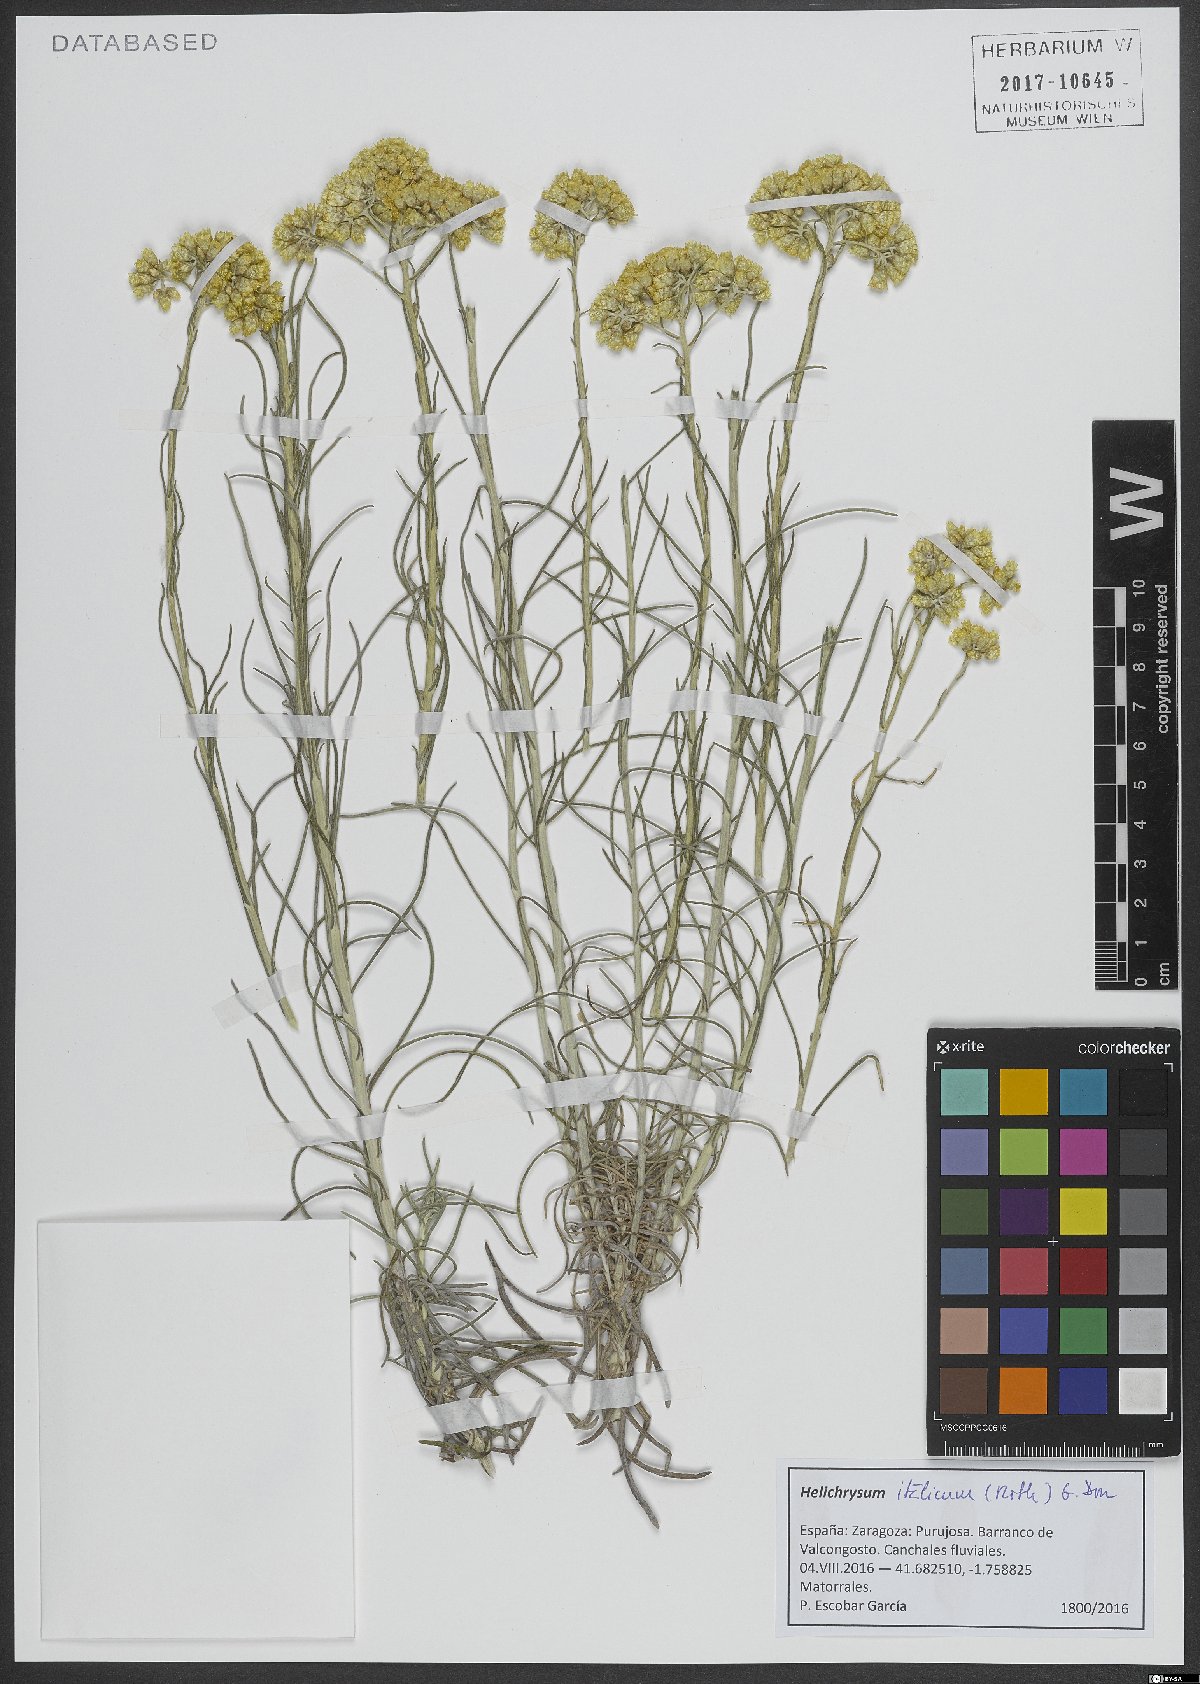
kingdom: Plantae
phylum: Tracheophyta
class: Magnoliopsida
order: Asterales
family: Asteraceae
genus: Helichrysum
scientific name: Helichrysum italicum
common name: Curryplant
